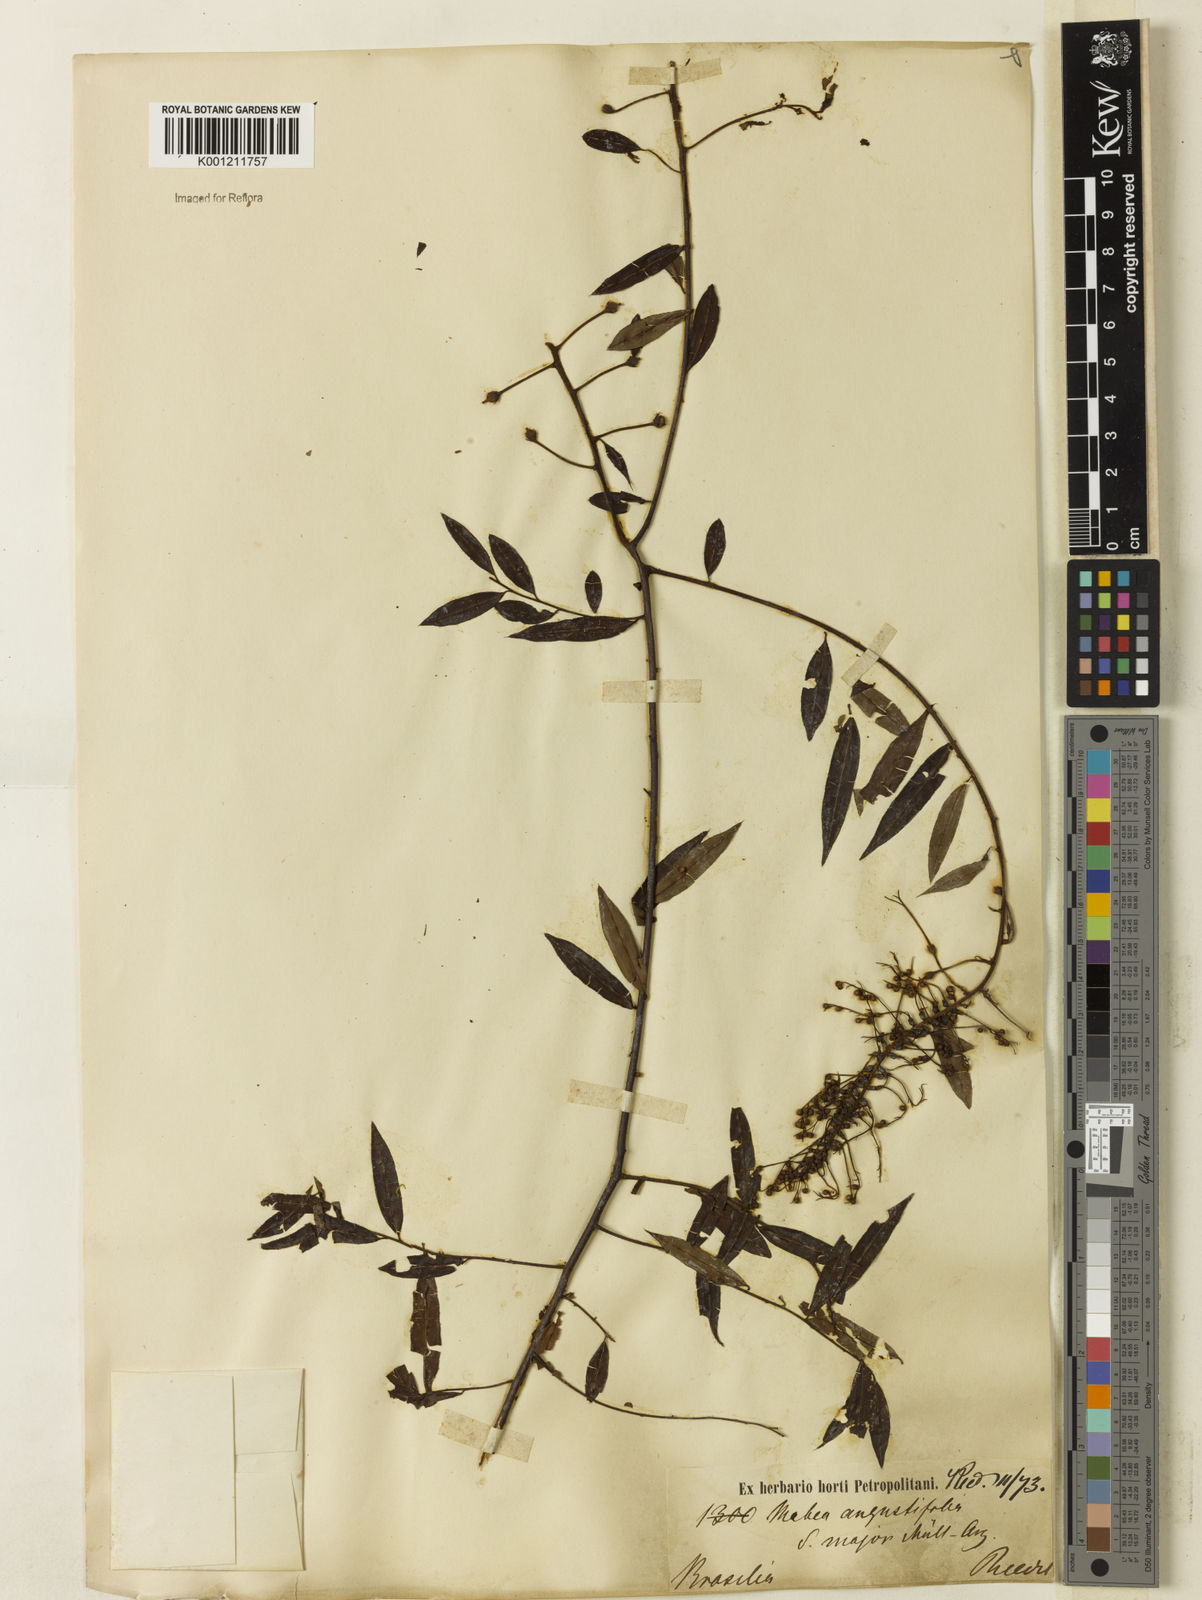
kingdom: Plantae
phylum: Tracheophyta
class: Magnoliopsida
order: Malpighiales
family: Euphorbiaceae
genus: Mabea
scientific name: Mabea angustifolia
